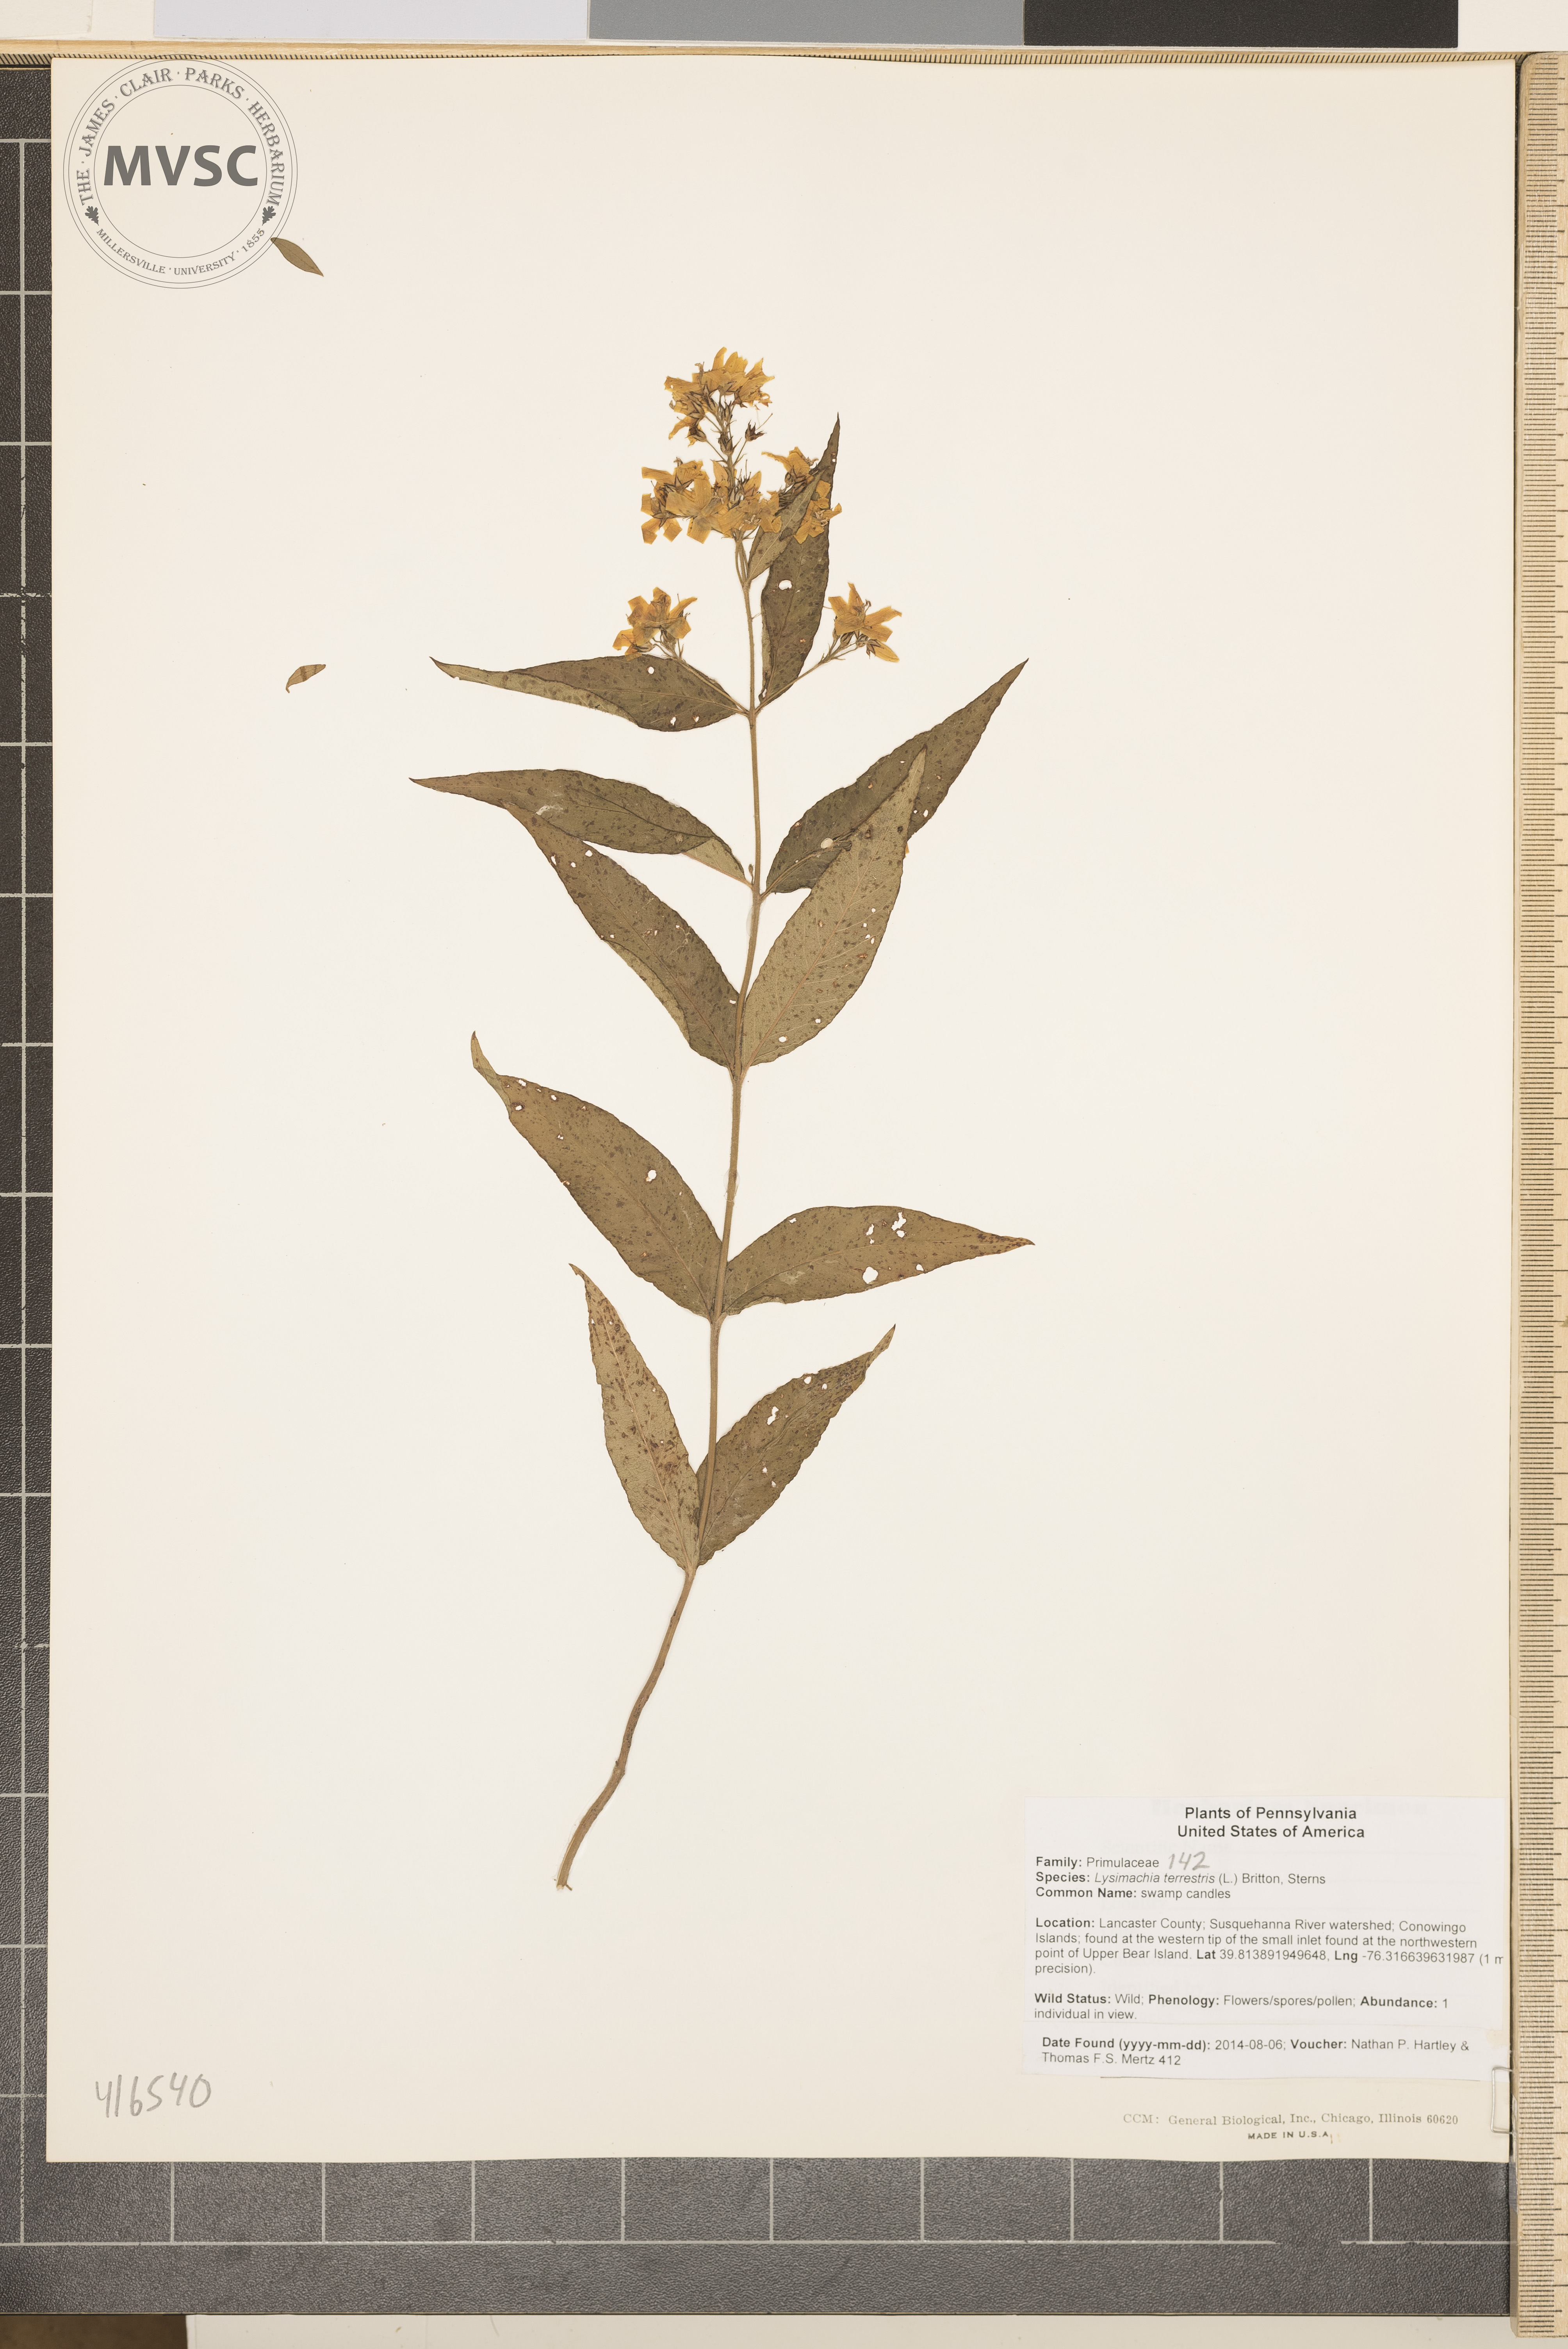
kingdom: Plantae
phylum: Tracheophyta
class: Magnoliopsida
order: Ericales
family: Primulaceae
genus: Lysimachia
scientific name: Lysimachia terrestris
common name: swamp candles
